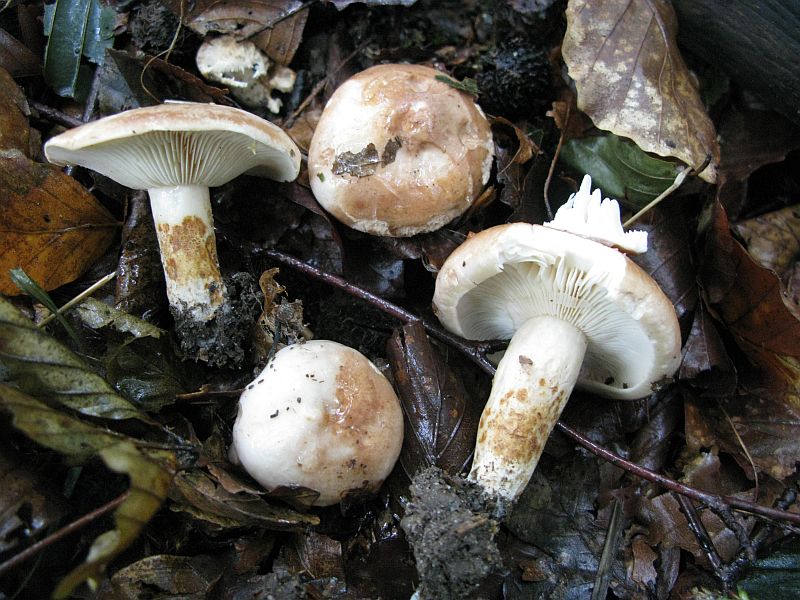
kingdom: Fungi
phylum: Basidiomycota
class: Agaricomycetes
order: Russulales
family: Russulaceae
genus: Lactarius
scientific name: Lactarius pallidus
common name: bleg mælkehat
